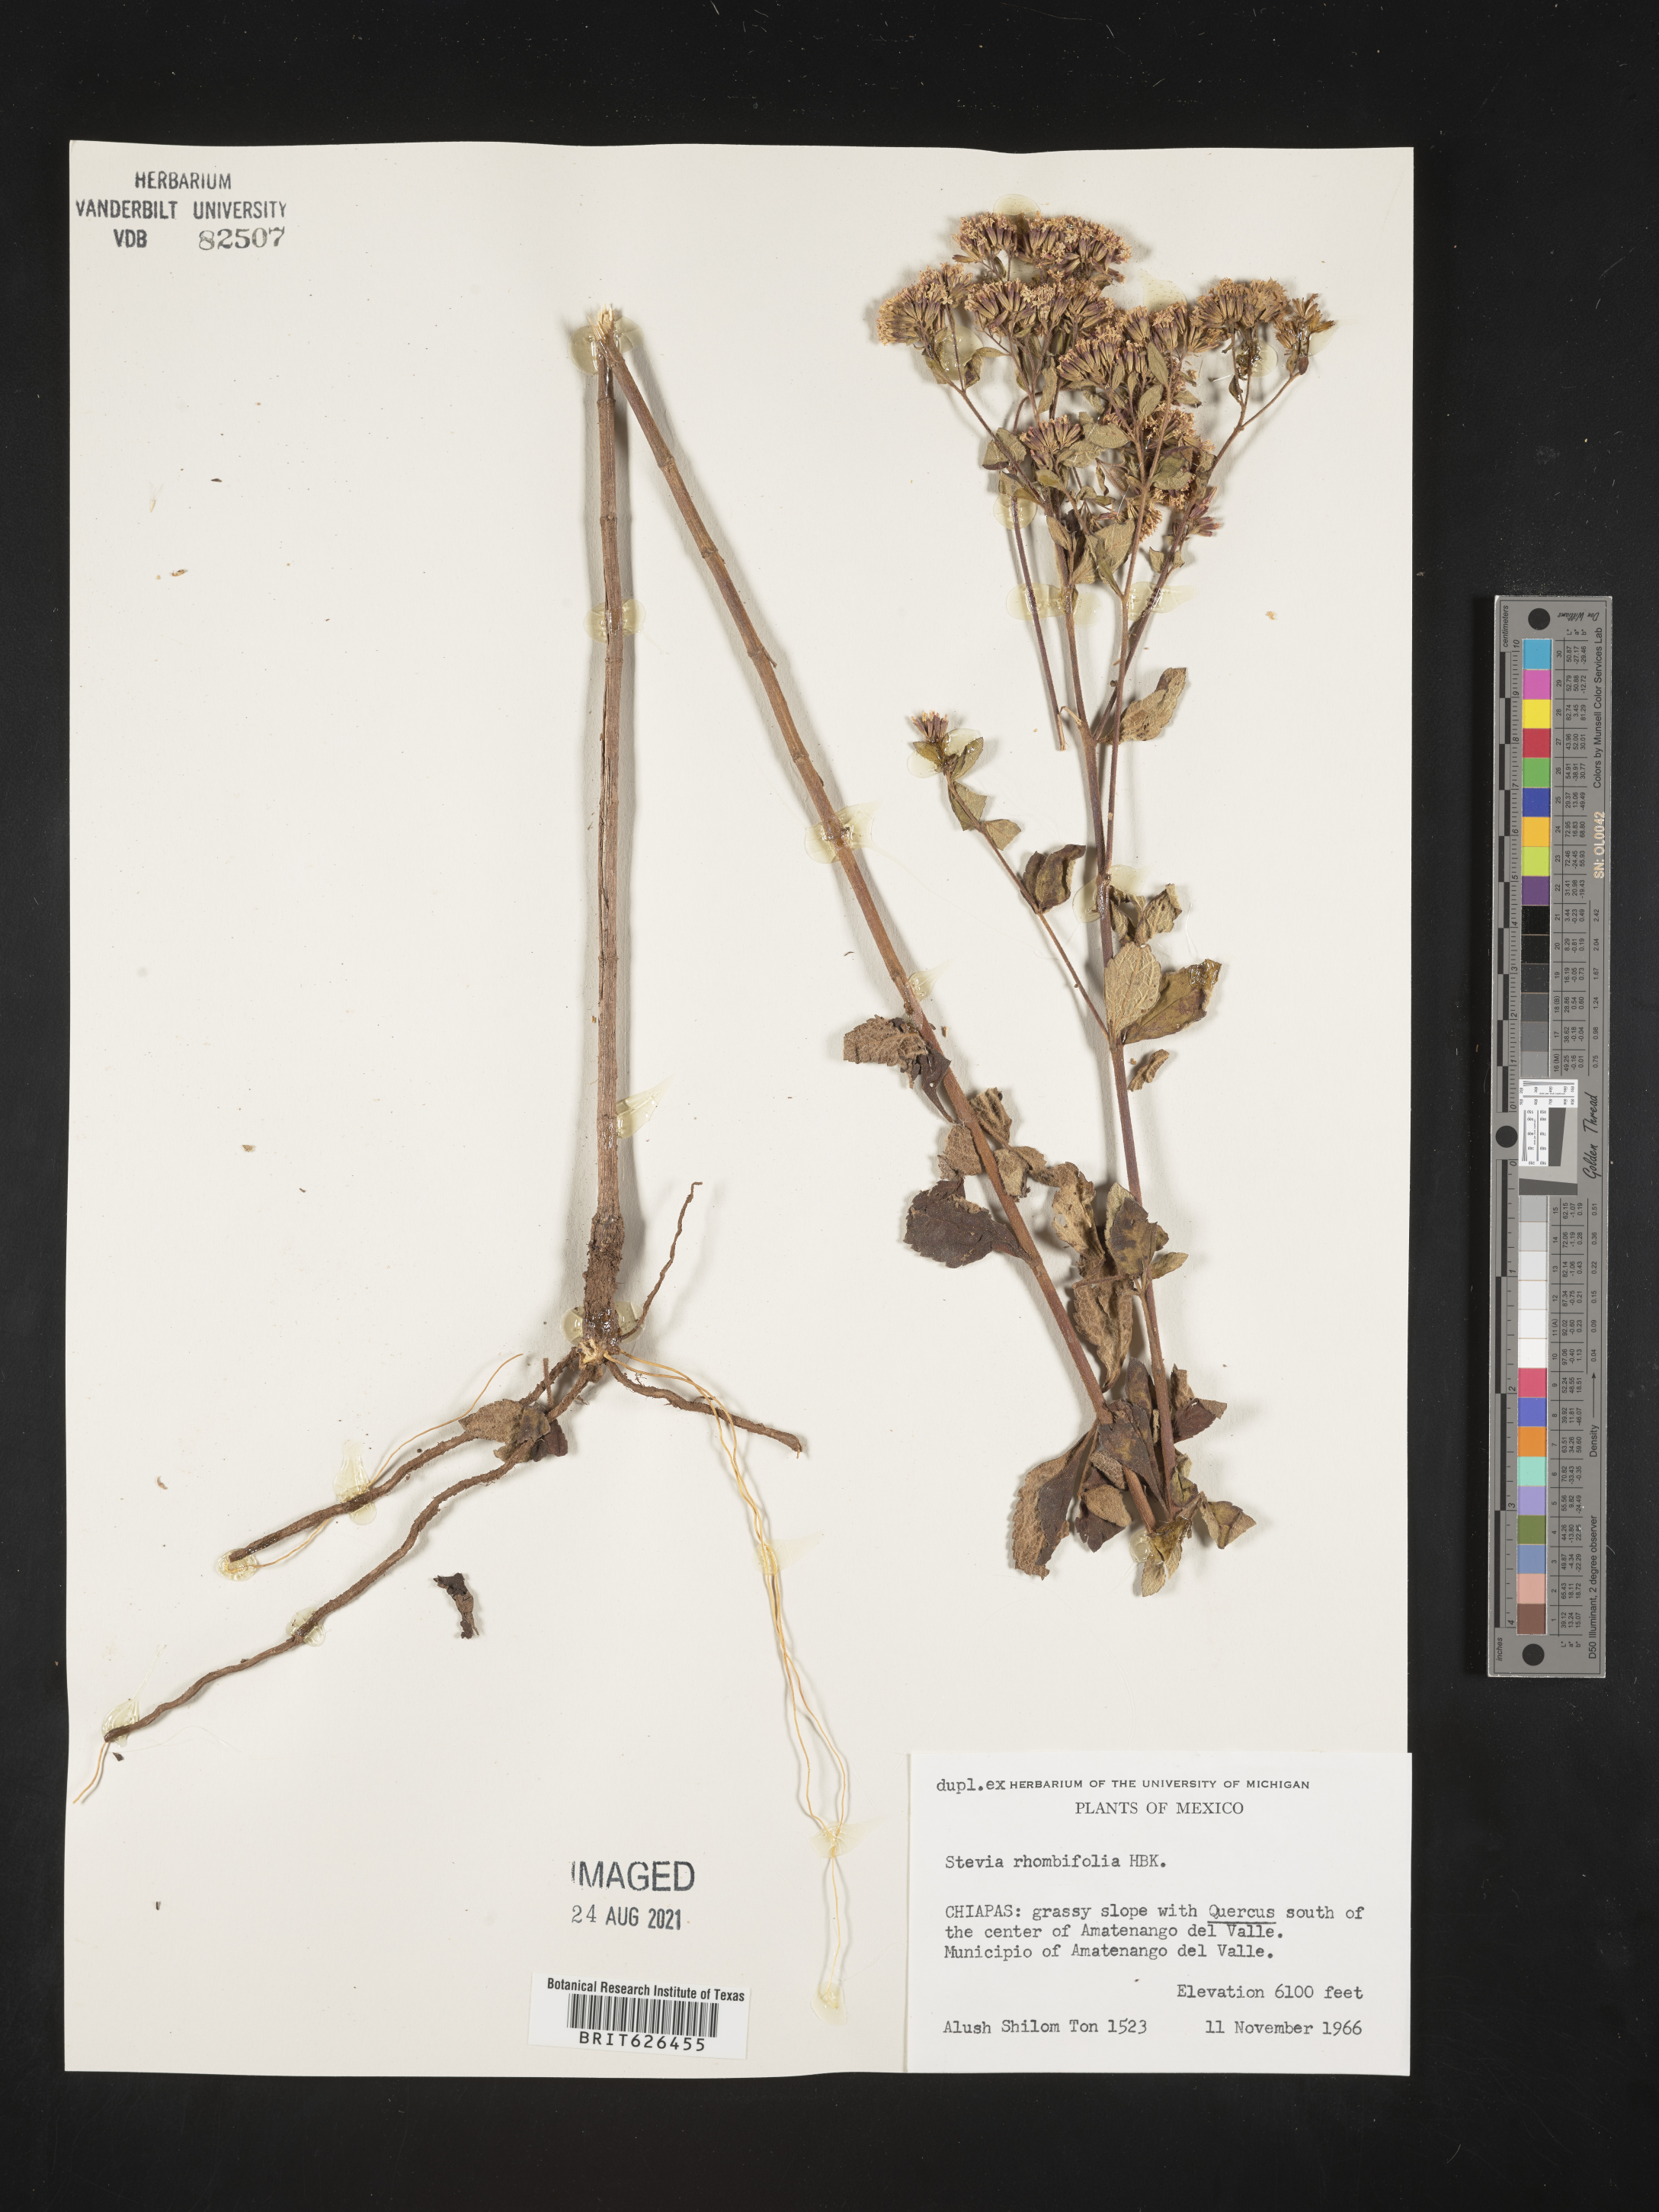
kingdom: Plantae
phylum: Tracheophyta
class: Magnoliopsida
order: Asterales
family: Asteraceae
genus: Stevia
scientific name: Stevia
